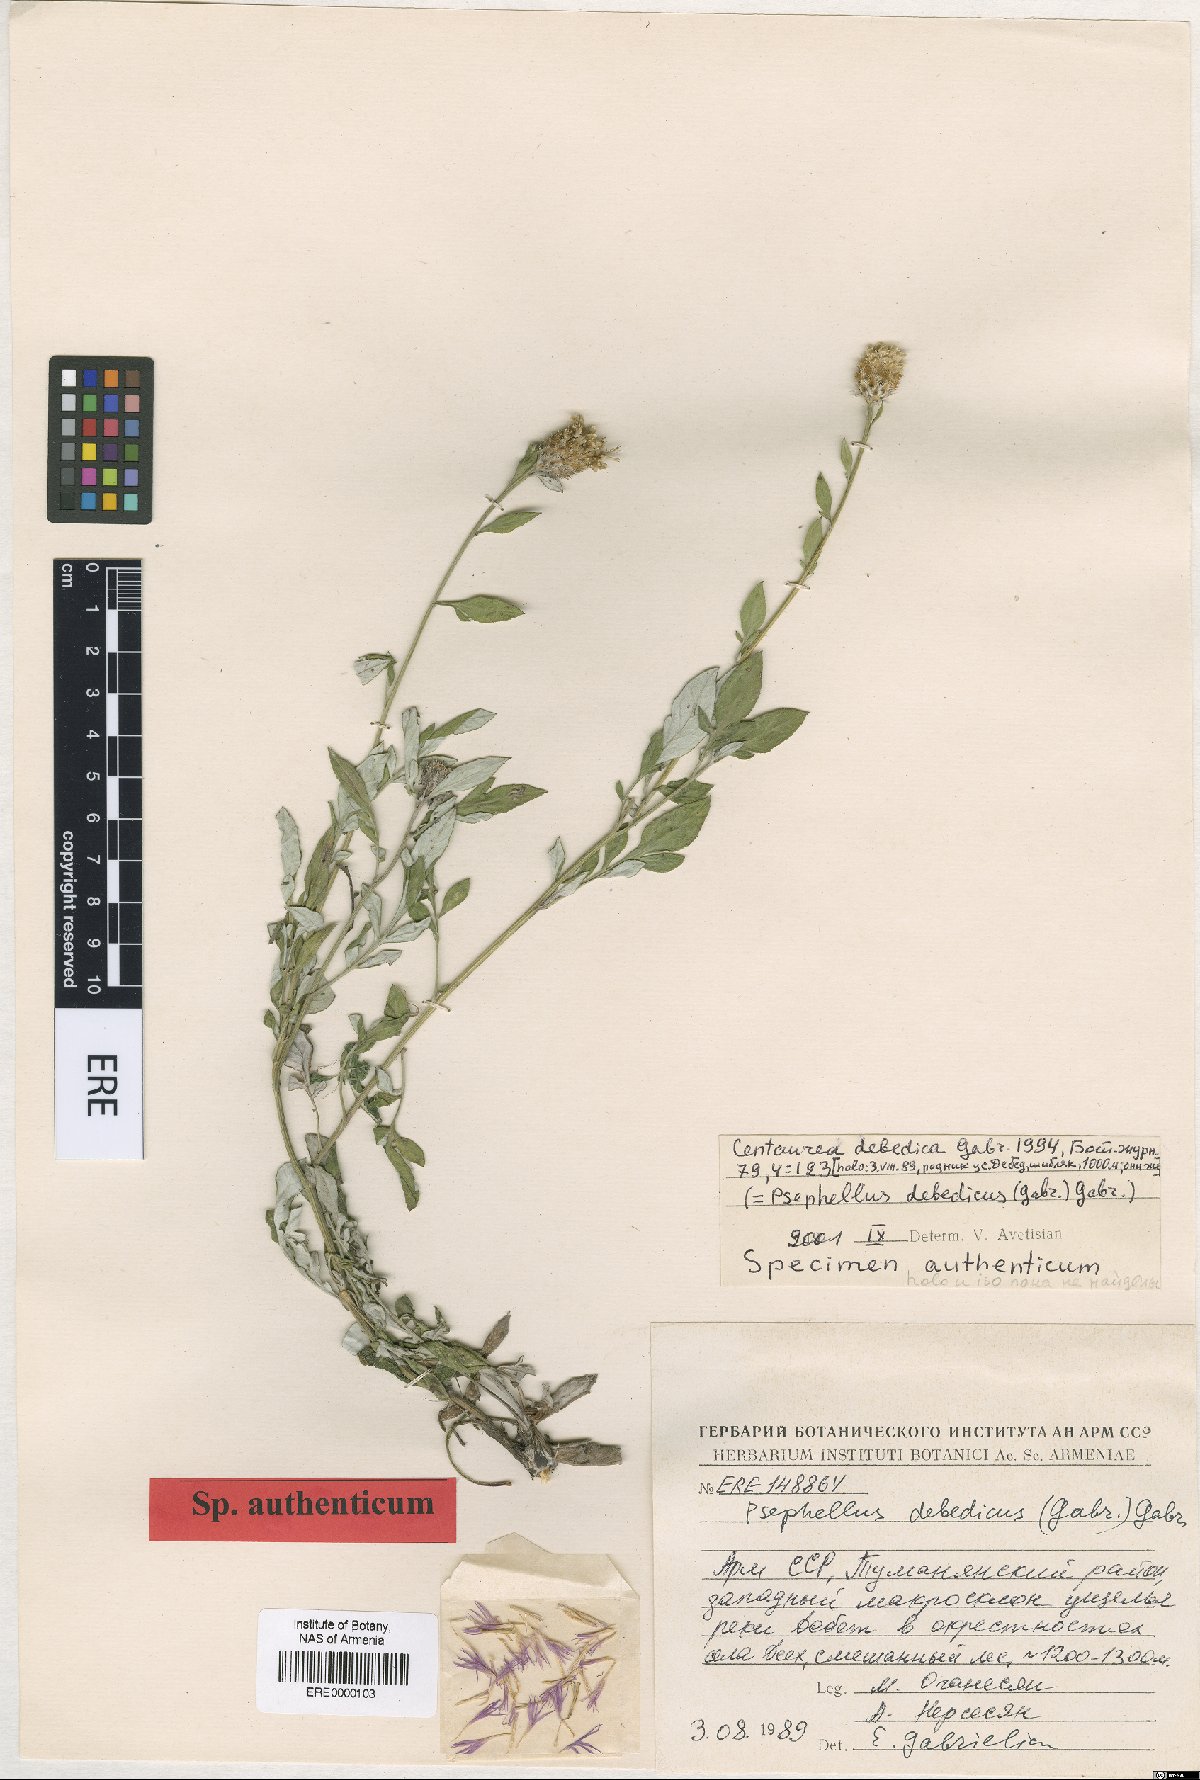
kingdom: Plantae
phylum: Tracheophyta
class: Magnoliopsida
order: Asterales
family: Asteraceae
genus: Psephellus
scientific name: Psephellus debedicus
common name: Debedian cornflower
